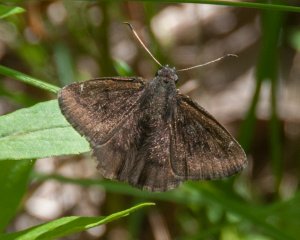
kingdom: Animalia
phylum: Arthropoda
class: Insecta
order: Lepidoptera
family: Hesperiidae
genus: Autochton
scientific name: Autochton
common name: Northern Cloudywing
